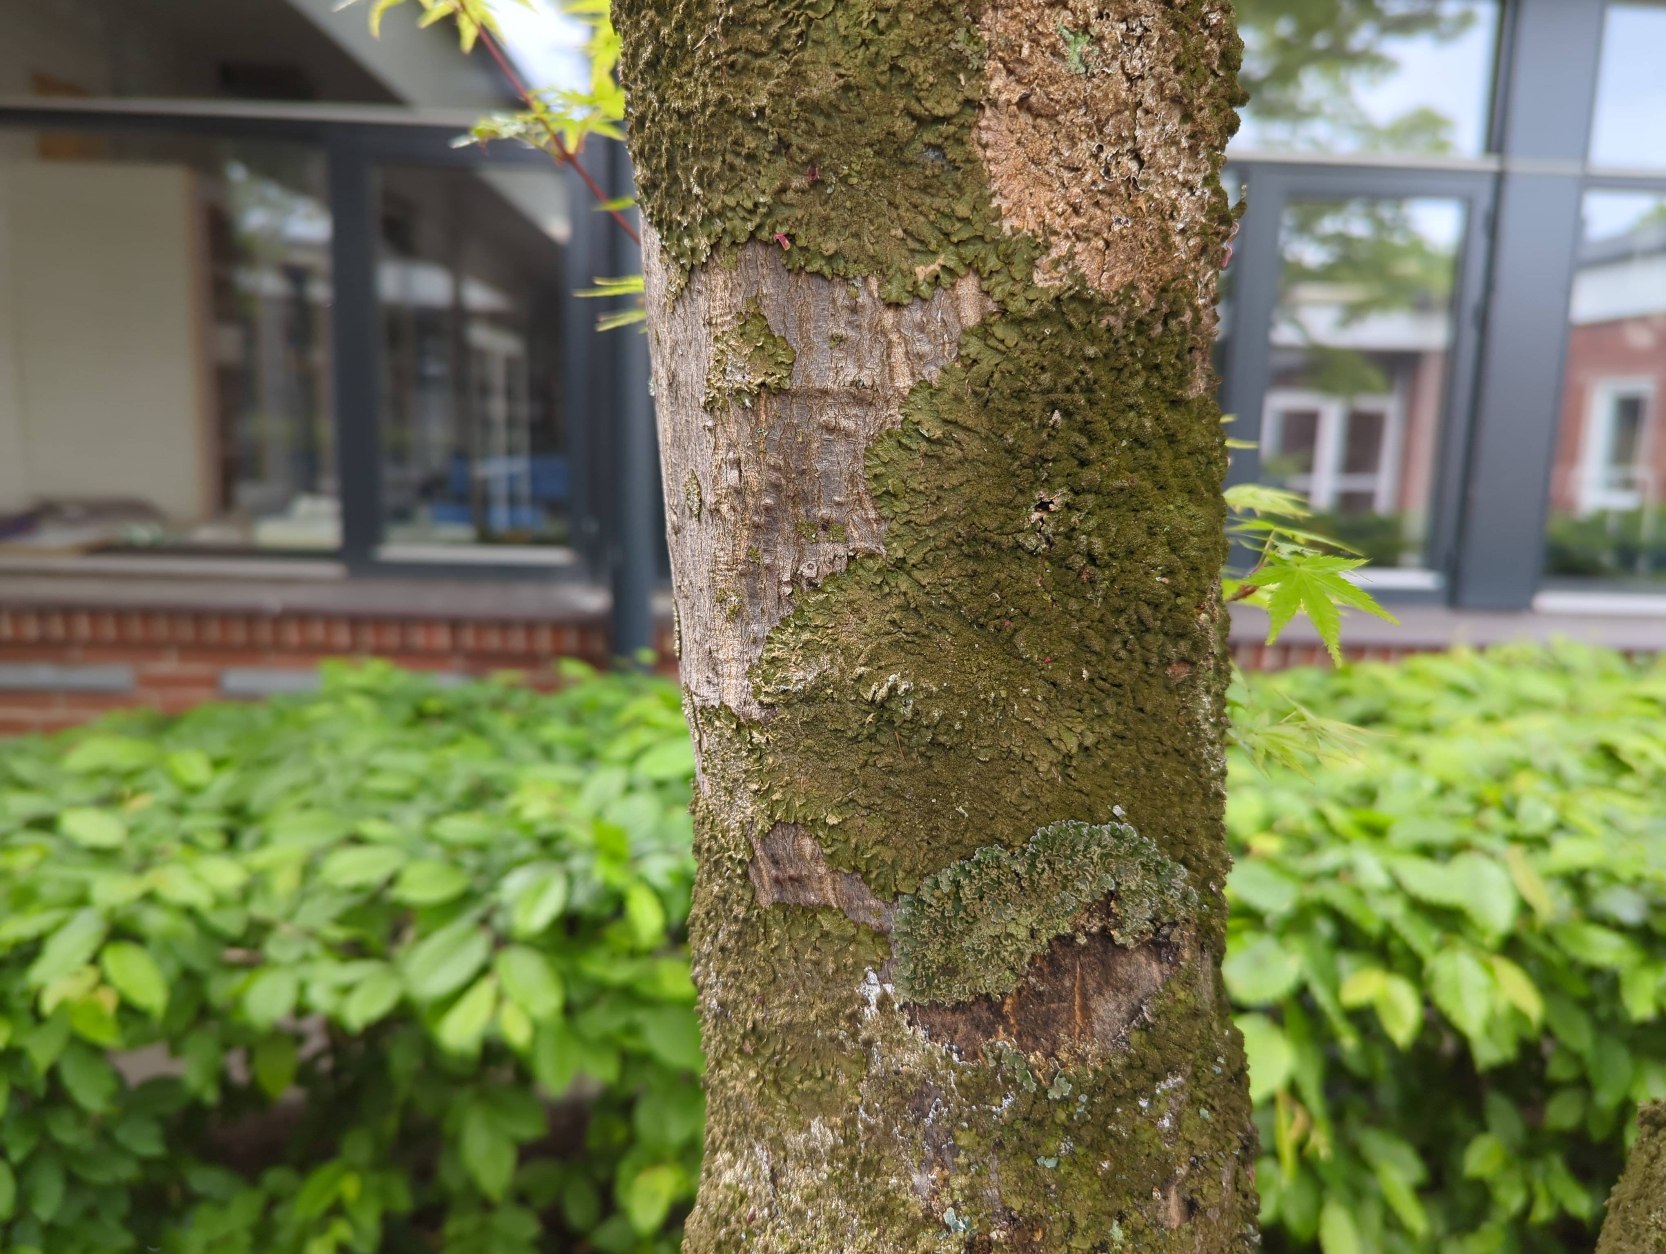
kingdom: Fungi
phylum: Ascomycota
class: Lecanoromycetes
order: Lecanorales
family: Parmeliaceae
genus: Melanelixia
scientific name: Melanelixia glabratula
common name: Glinsende skållav
